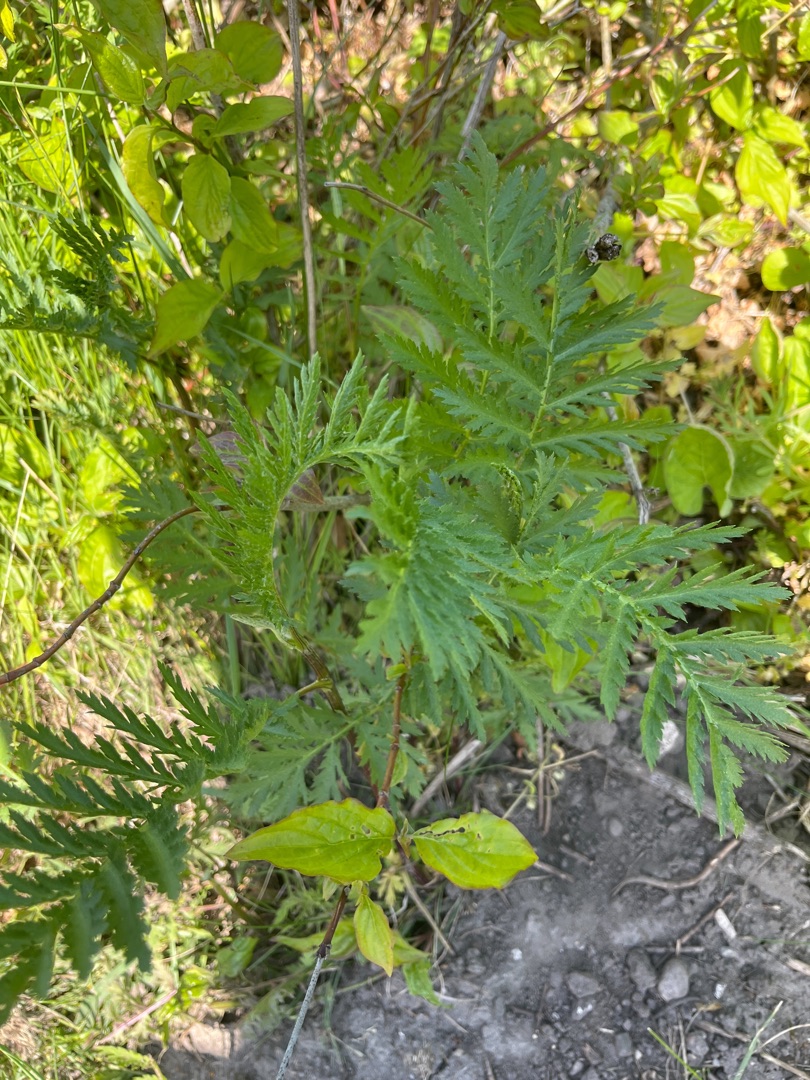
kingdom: Plantae
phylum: Tracheophyta
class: Magnoliopsida
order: Asterales
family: Asteraceae
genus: Tanacetum
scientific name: Tanacetum vulgare
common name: Rejnfan
